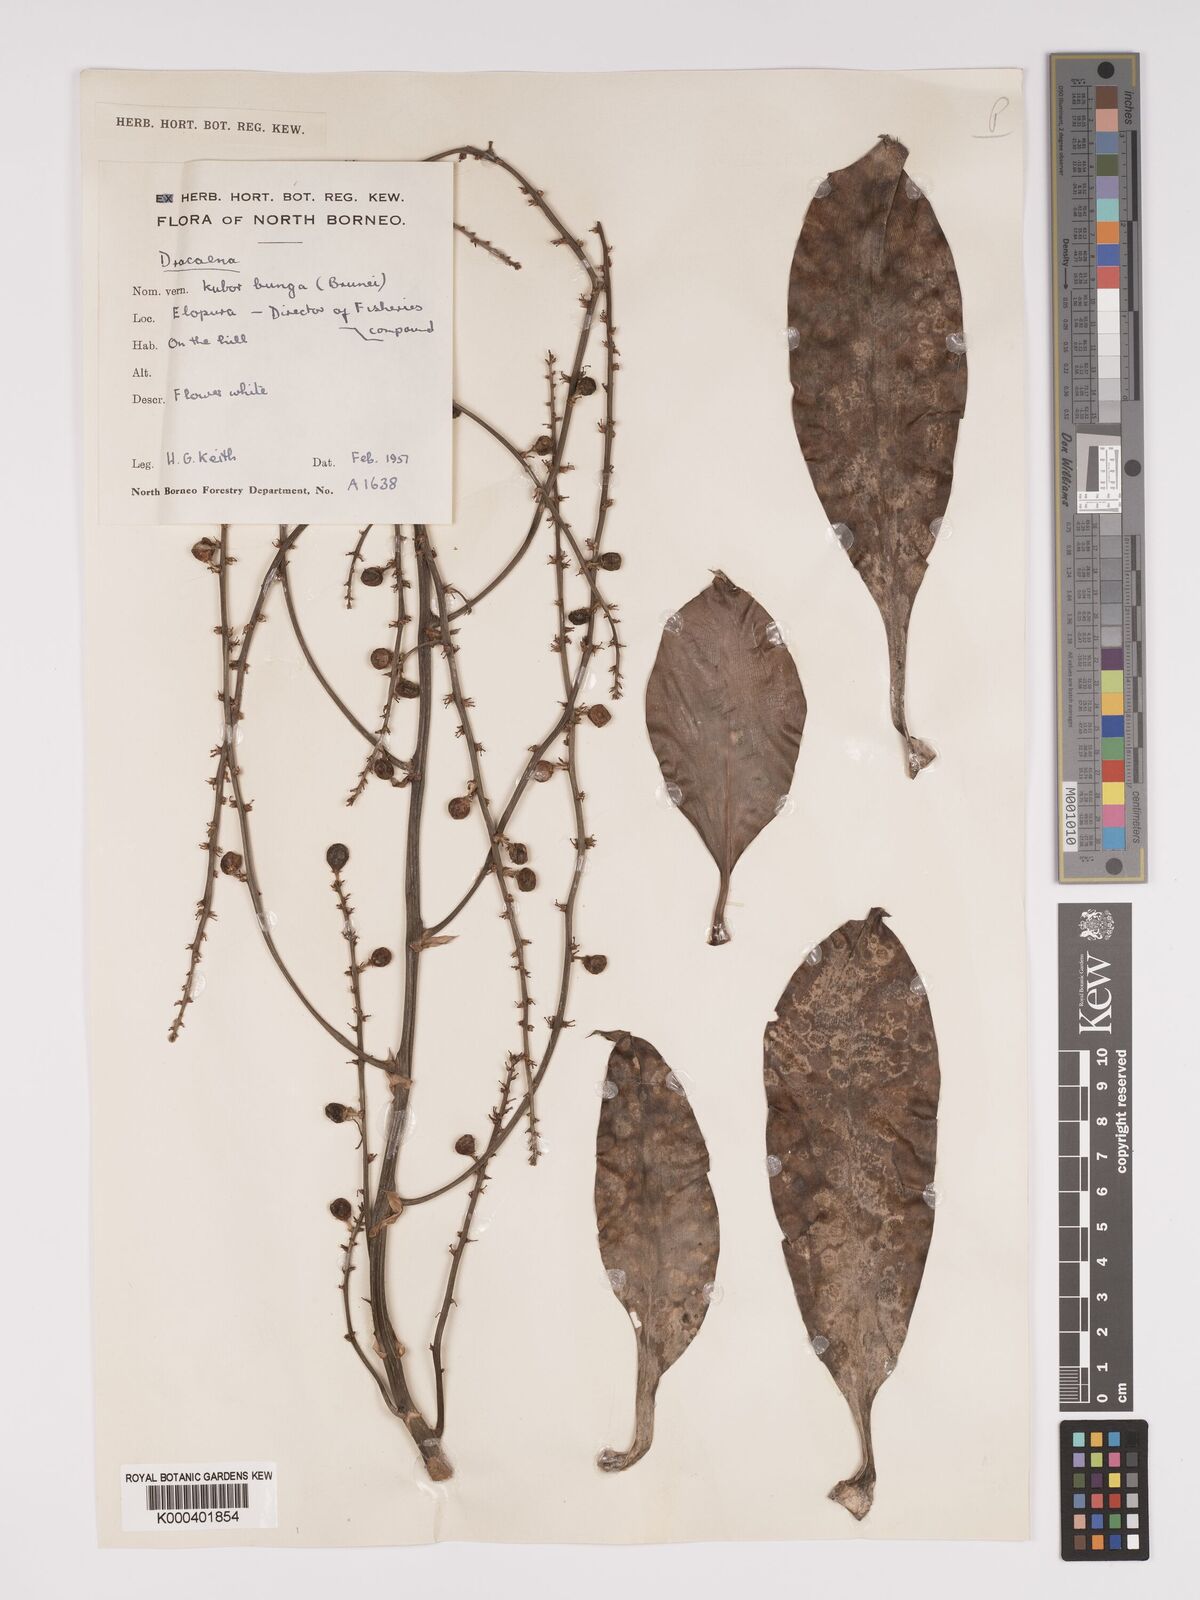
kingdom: Plantae
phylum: Tracheophyta
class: Liliopsida
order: Asparagales
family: Asparagaceae
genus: Dracaena
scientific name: Dracaena
